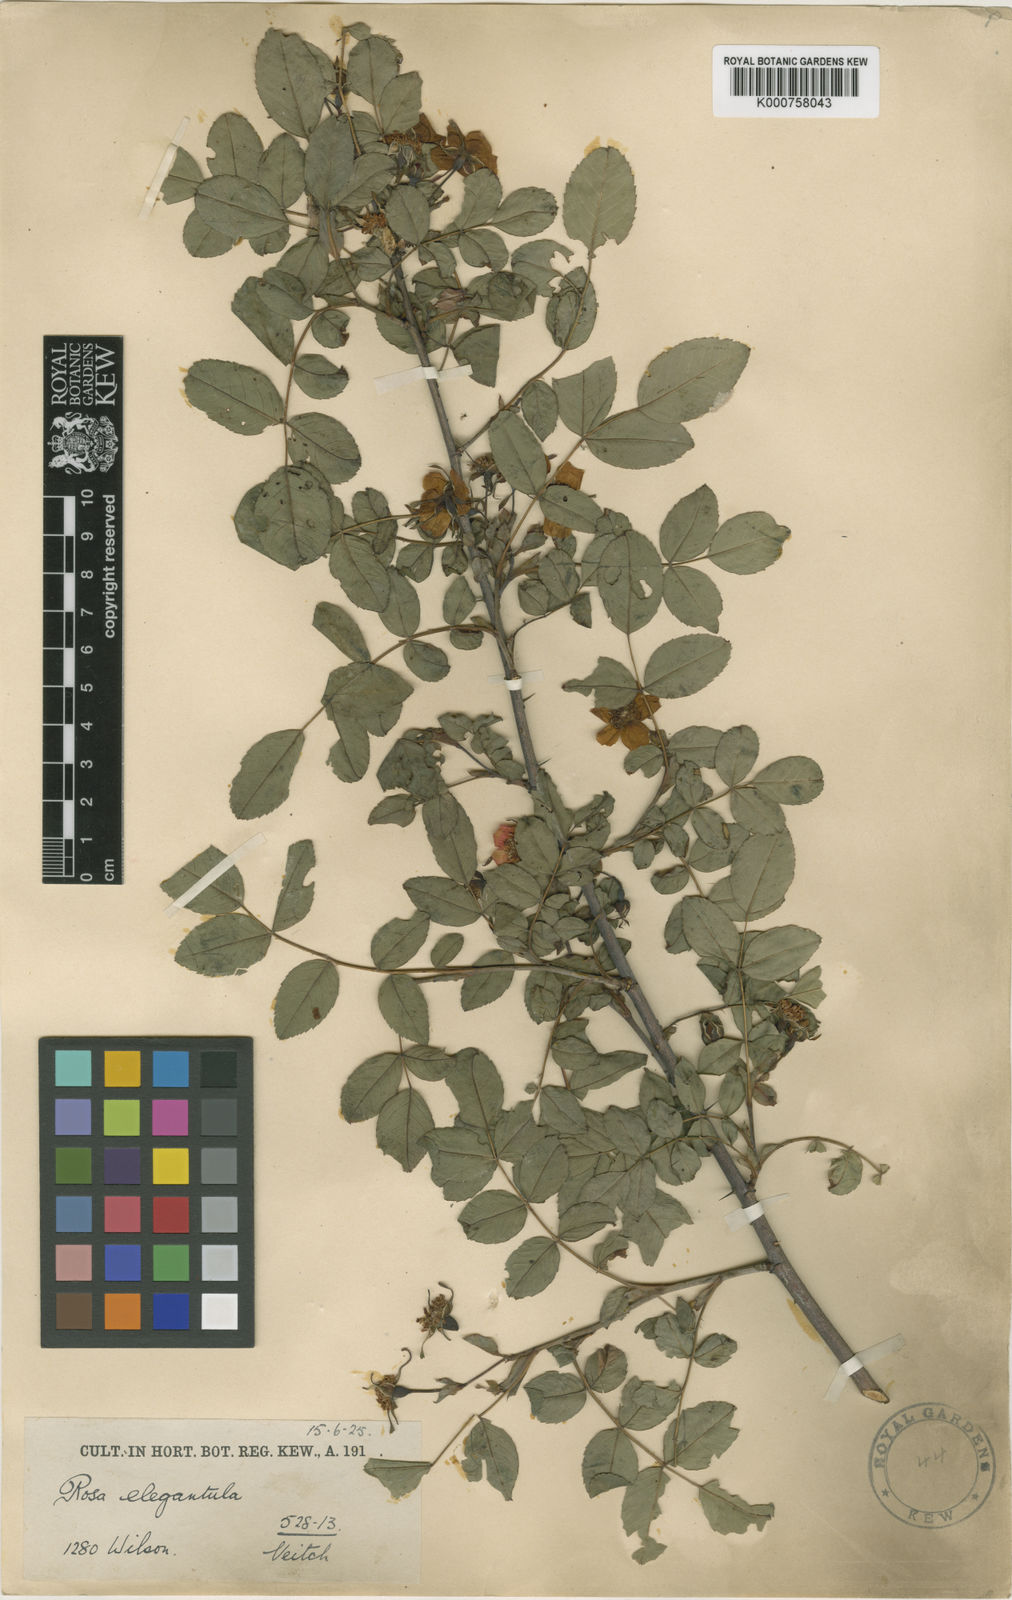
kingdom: Plantae
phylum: Tracheophyta
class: Magnoliopsida
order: Rosales
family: Rosaceae
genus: Rosa
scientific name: Rosa persetosa
